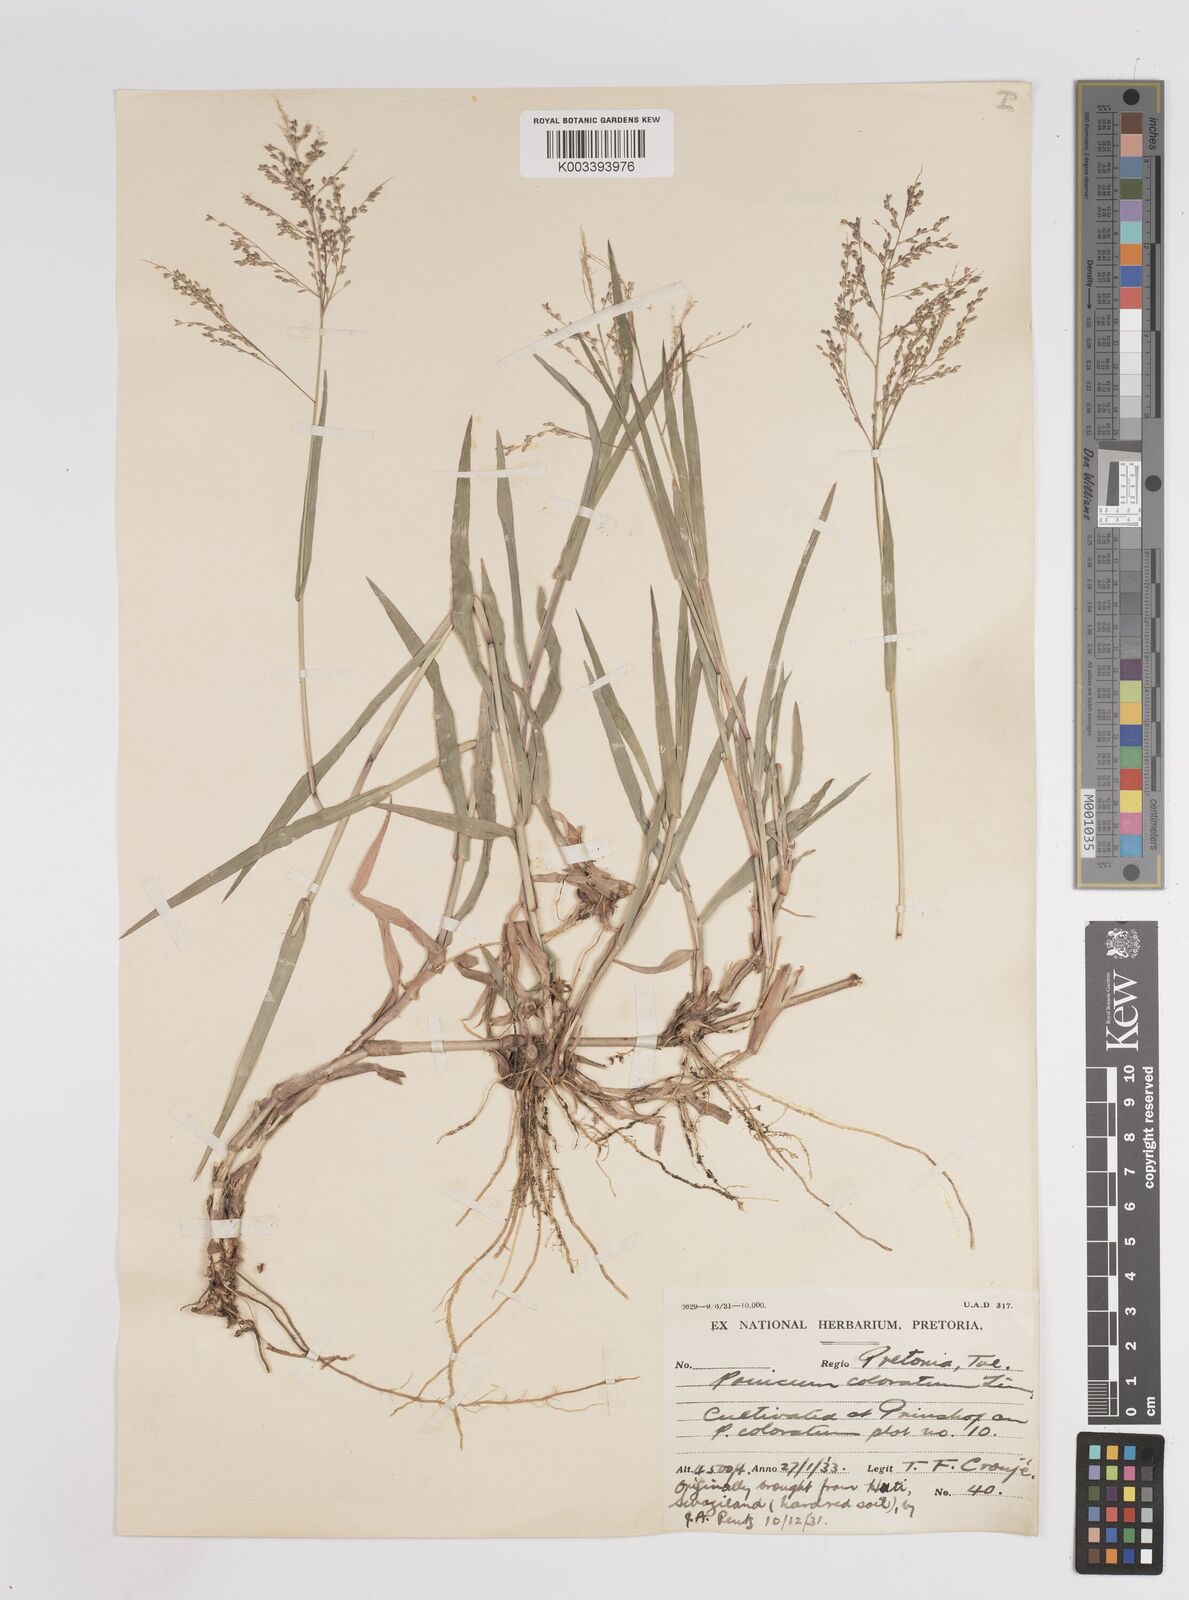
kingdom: Plantae
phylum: Tracheophyta
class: Liliopsida
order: Poales
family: Poaceae
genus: Panicum
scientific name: Panicum coloratum
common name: Kleingrass
